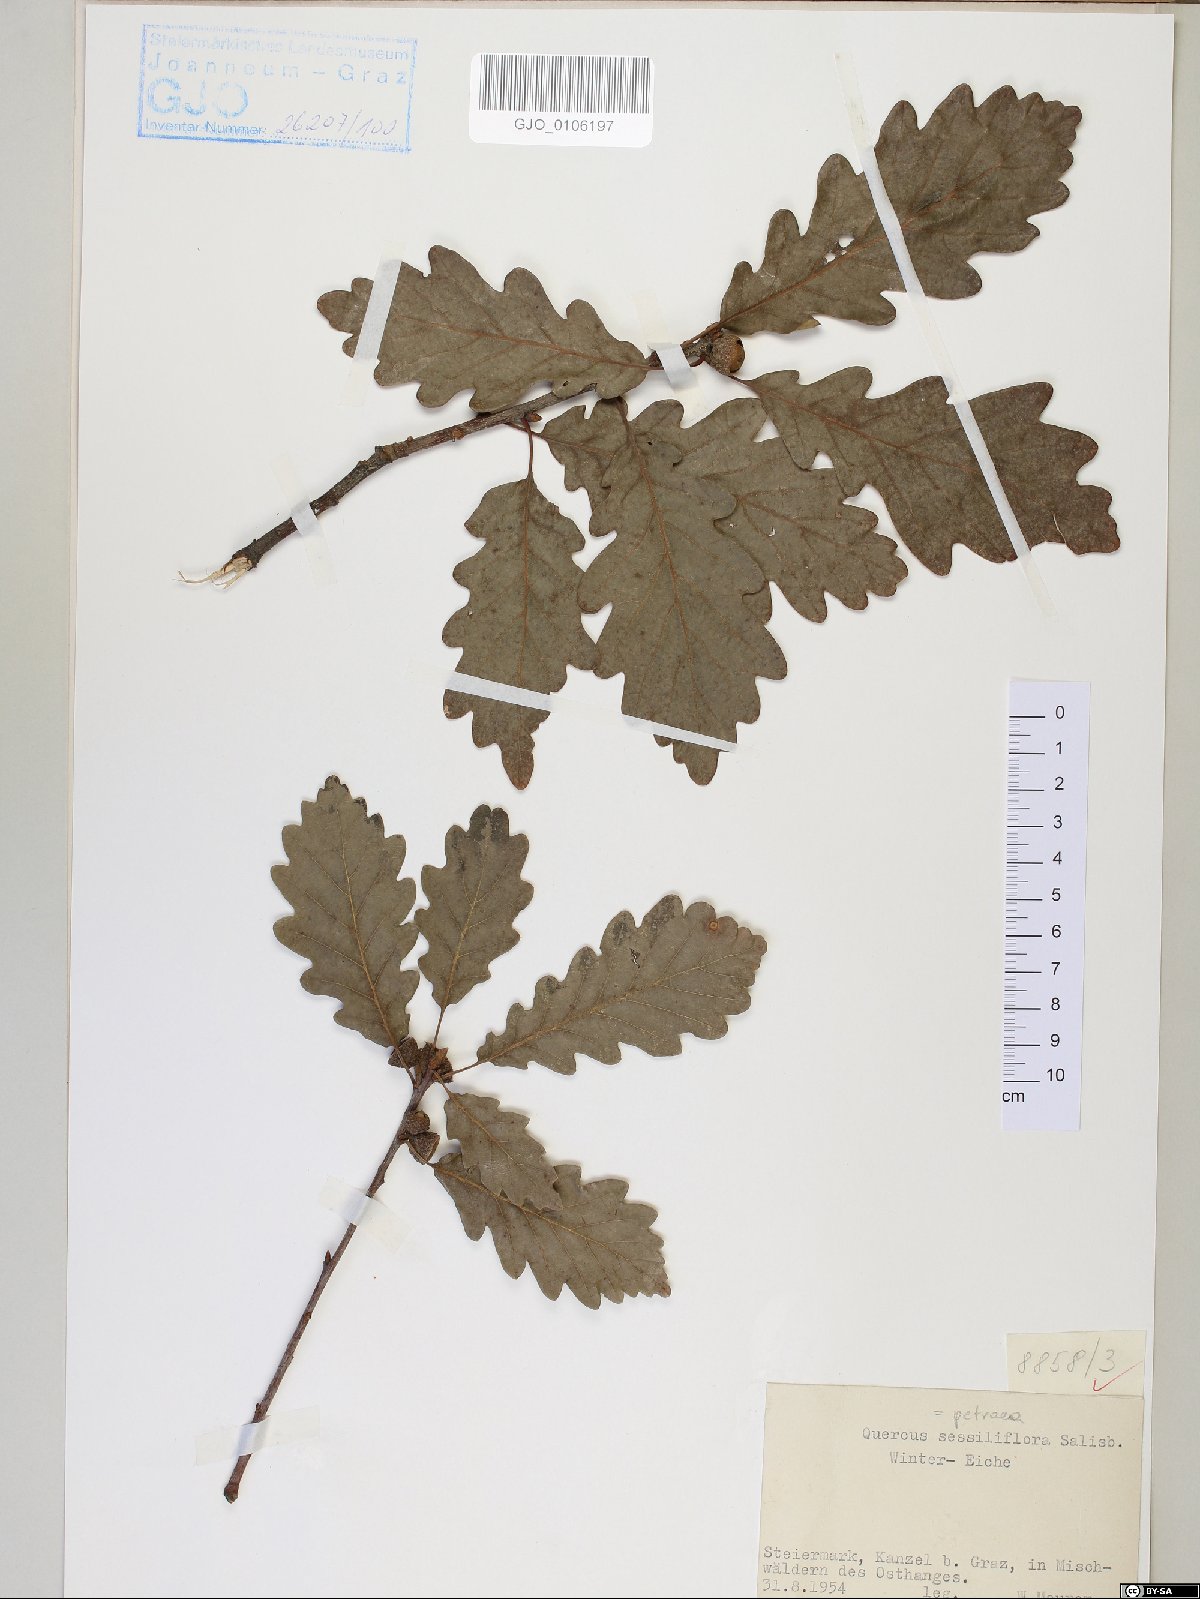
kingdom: Plantae
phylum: Tracheophyta
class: Magnoliopsida
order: Fagales
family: Fagaceae
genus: Quercus
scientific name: Quercus petraea
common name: Sessile oak
